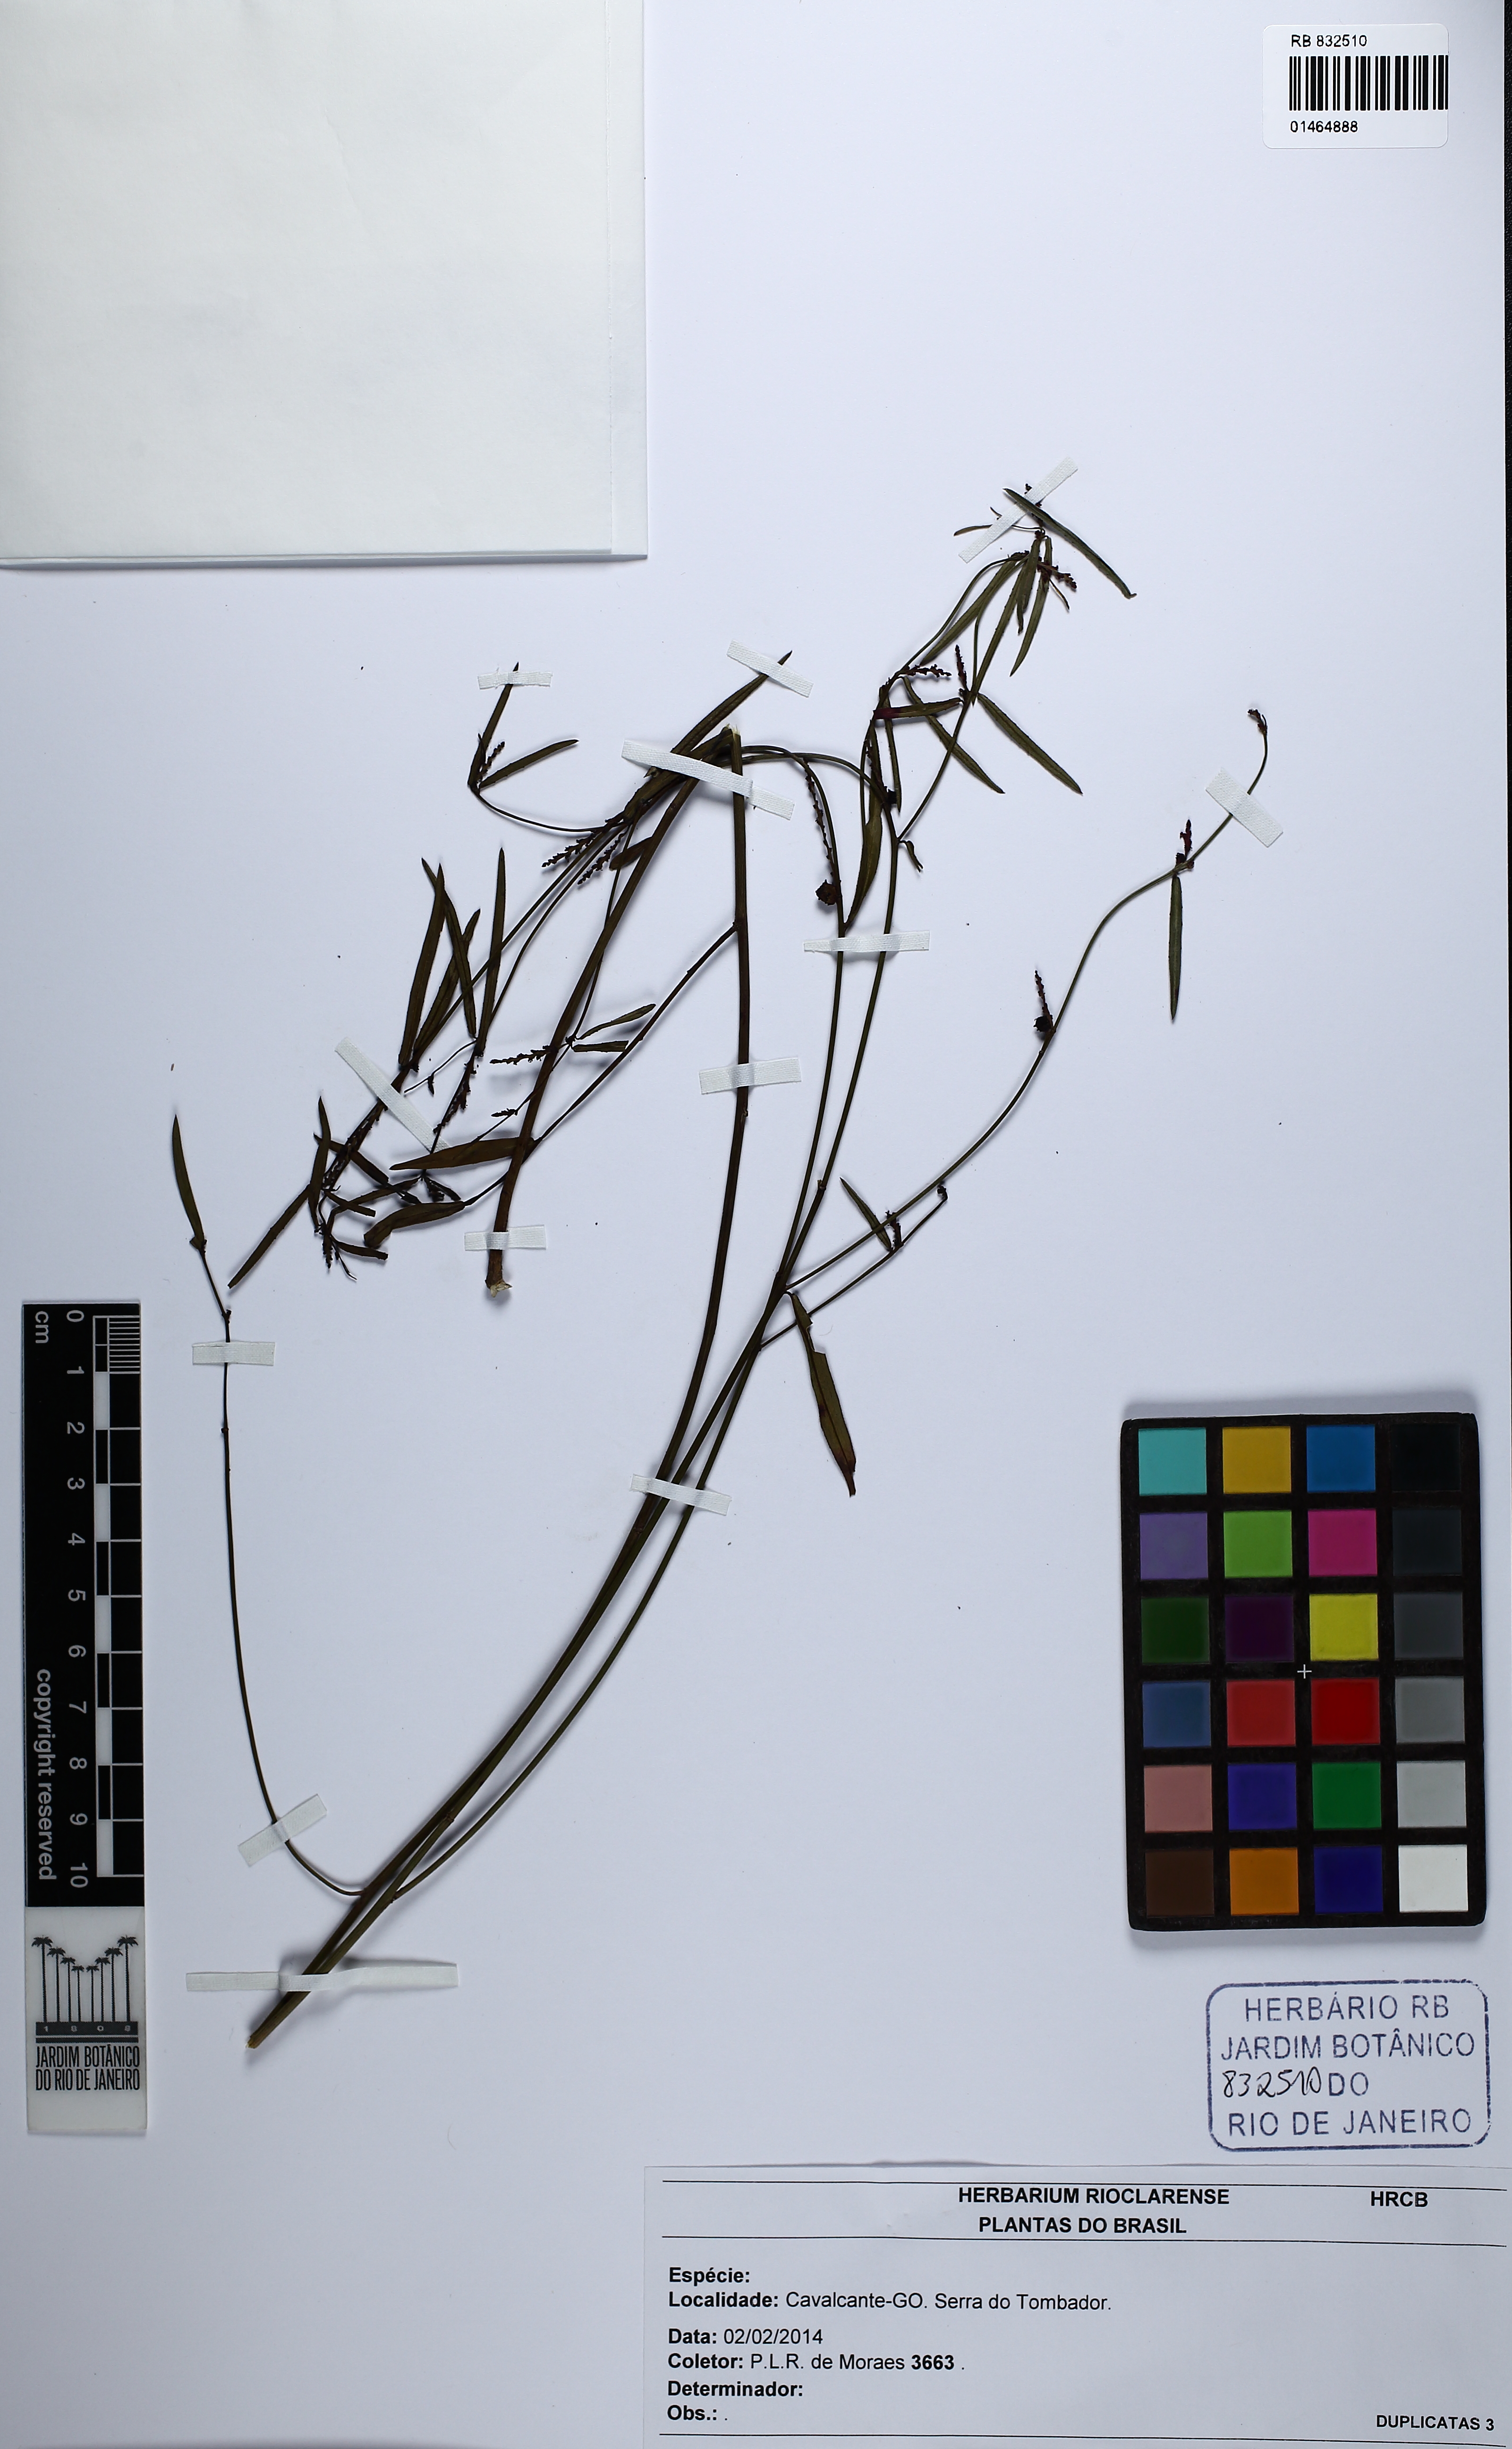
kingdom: Plantae
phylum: Tracheophyta
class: Magnoliopsida
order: Malpighiales
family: Euphorbiaceae
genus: Sebastiania
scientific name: Sebastiania
